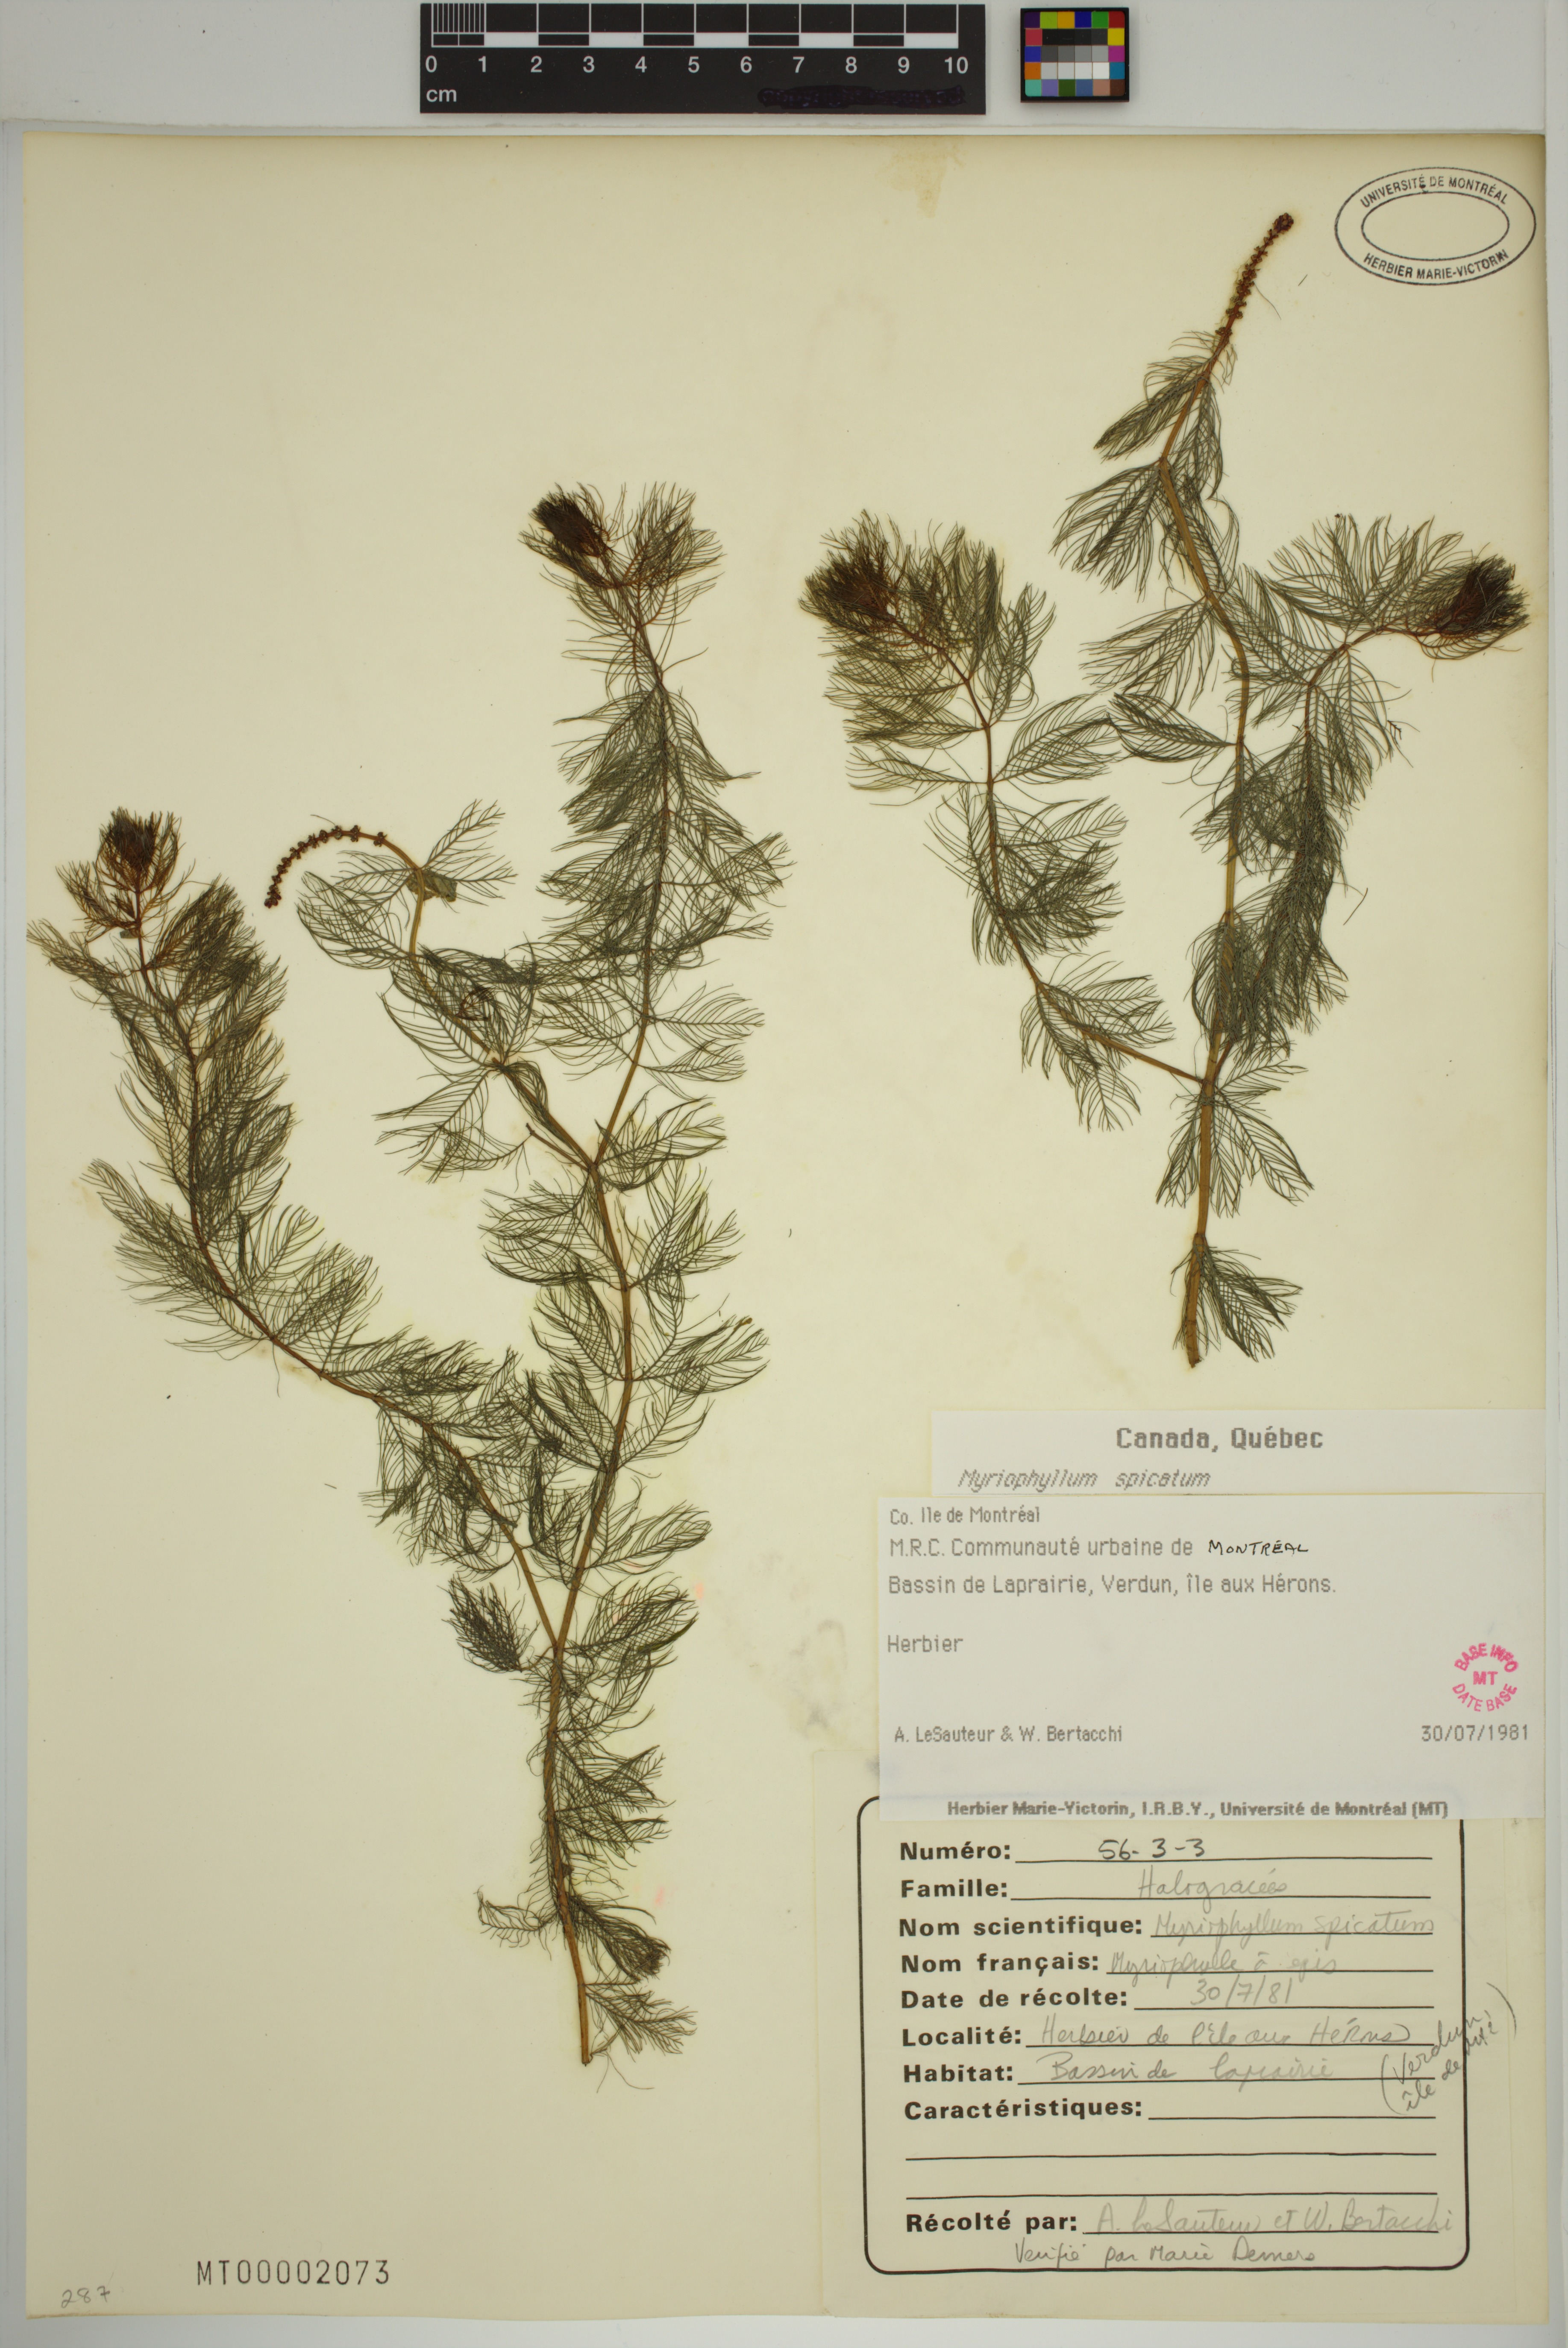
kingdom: Plantae
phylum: Tracheophyta
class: Magnoliopsida
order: Saxifragales
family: Haloragaceae
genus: Myriophyllum
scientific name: Myriophyllum spicatum
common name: Spiked water-milfoil
